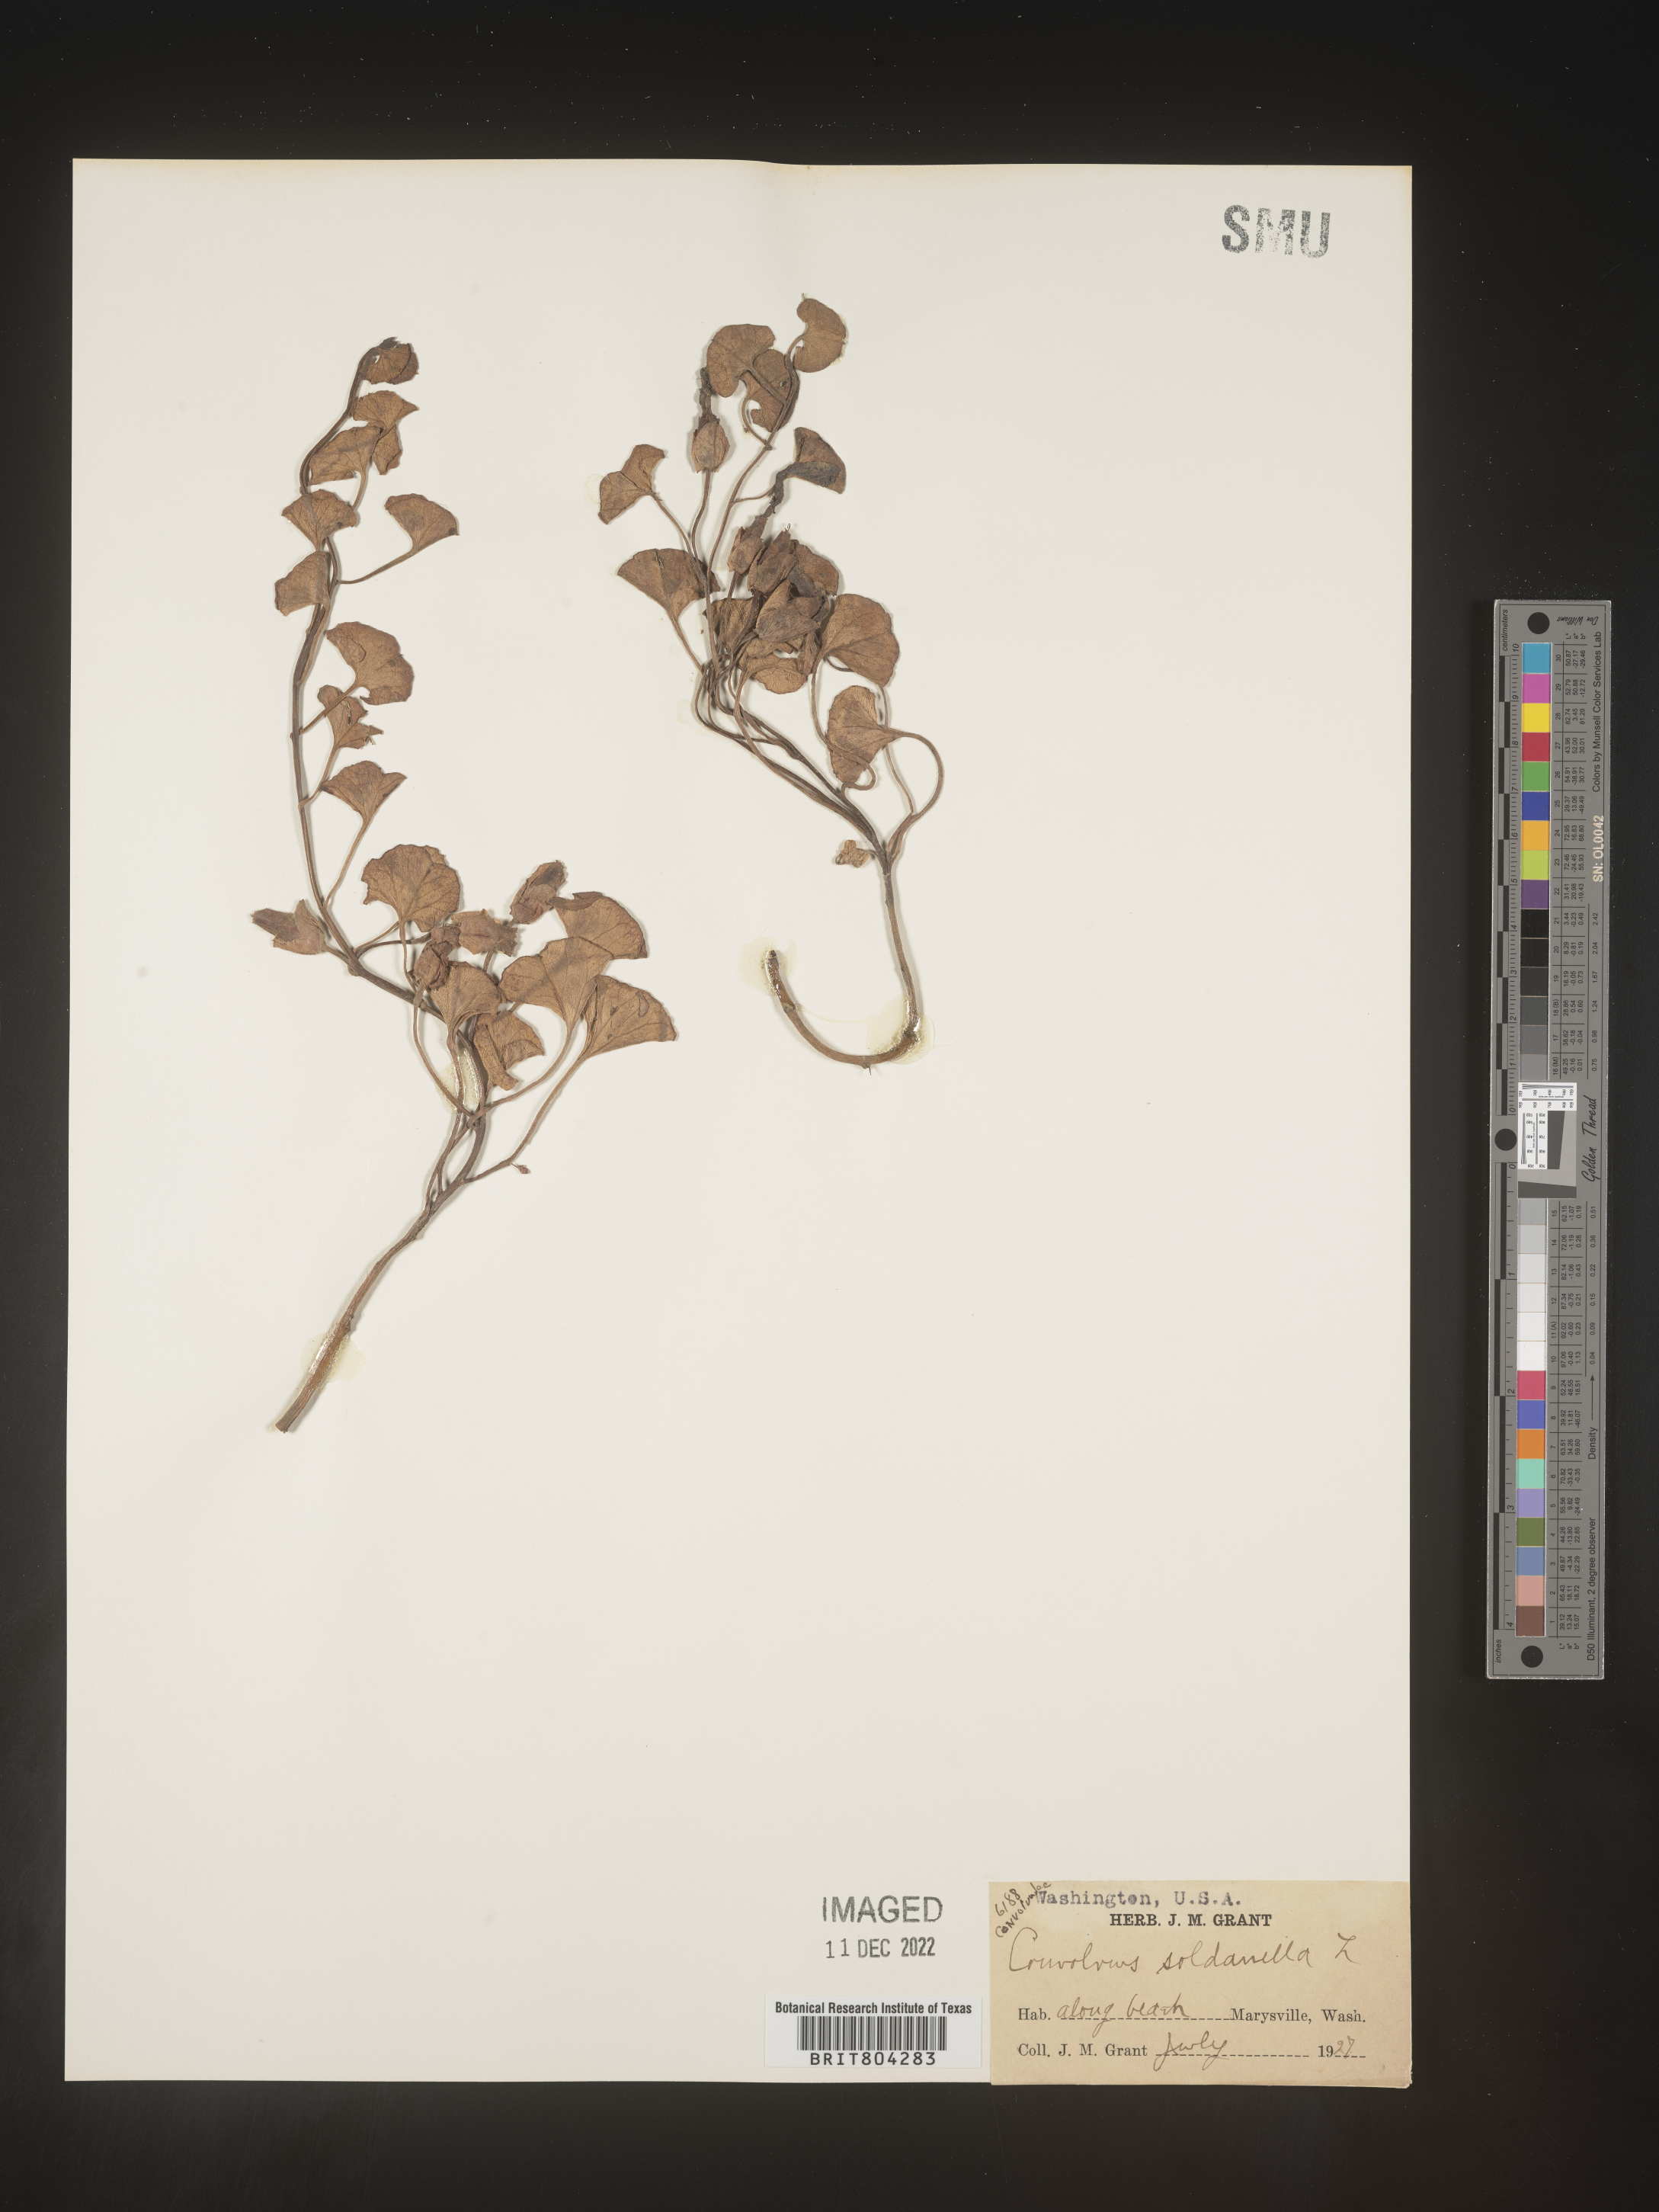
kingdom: Plantae
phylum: Tracheophyta
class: Magnoliopsida
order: Solanales
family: Convolvulaceae
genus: Calystegia
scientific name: Calystegia
